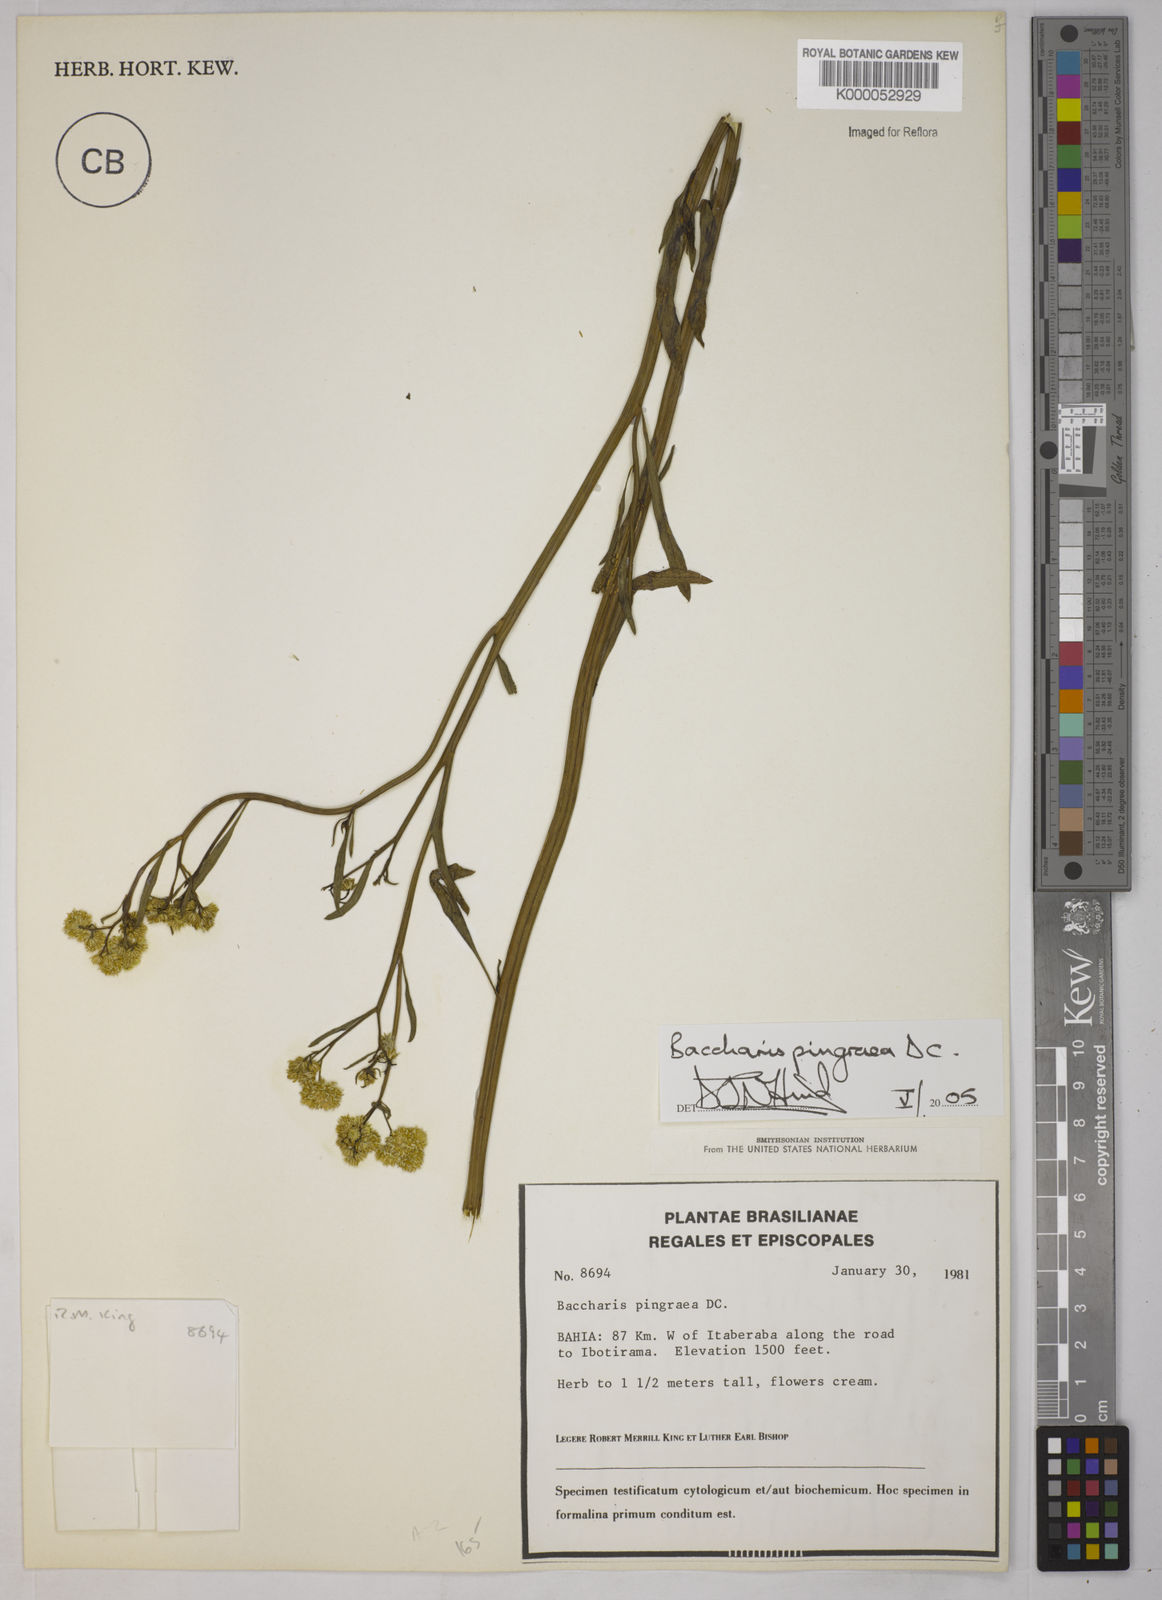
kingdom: Plantae
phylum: Tracheophyta
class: Magnoliopsida
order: Asterales
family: Asteraceae
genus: Baccharis
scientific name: Baccharis glutinosa
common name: Saltmarsh baccharis
